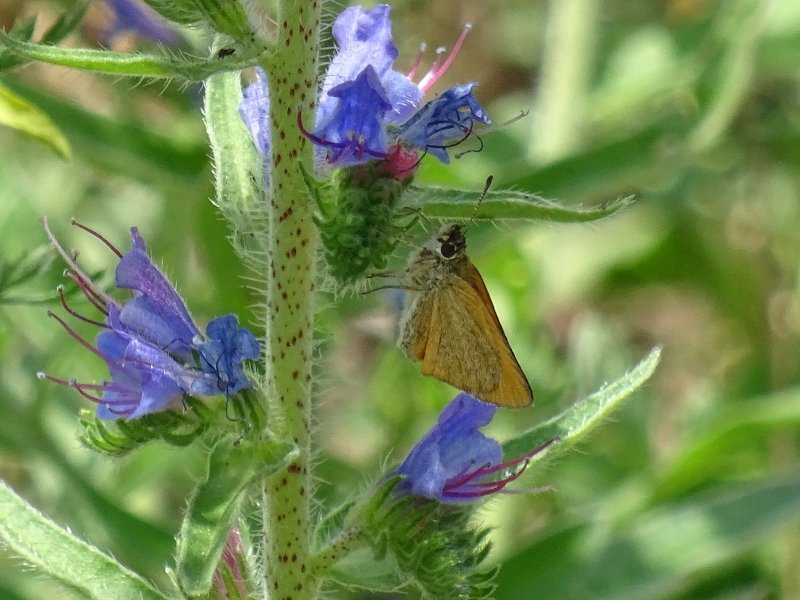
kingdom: Animalia
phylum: Arthropoda
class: Insecta
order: Lepidoptera
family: Hesperiidae
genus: Thymelicus
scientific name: Thymelicus lineola
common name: European Skipper
